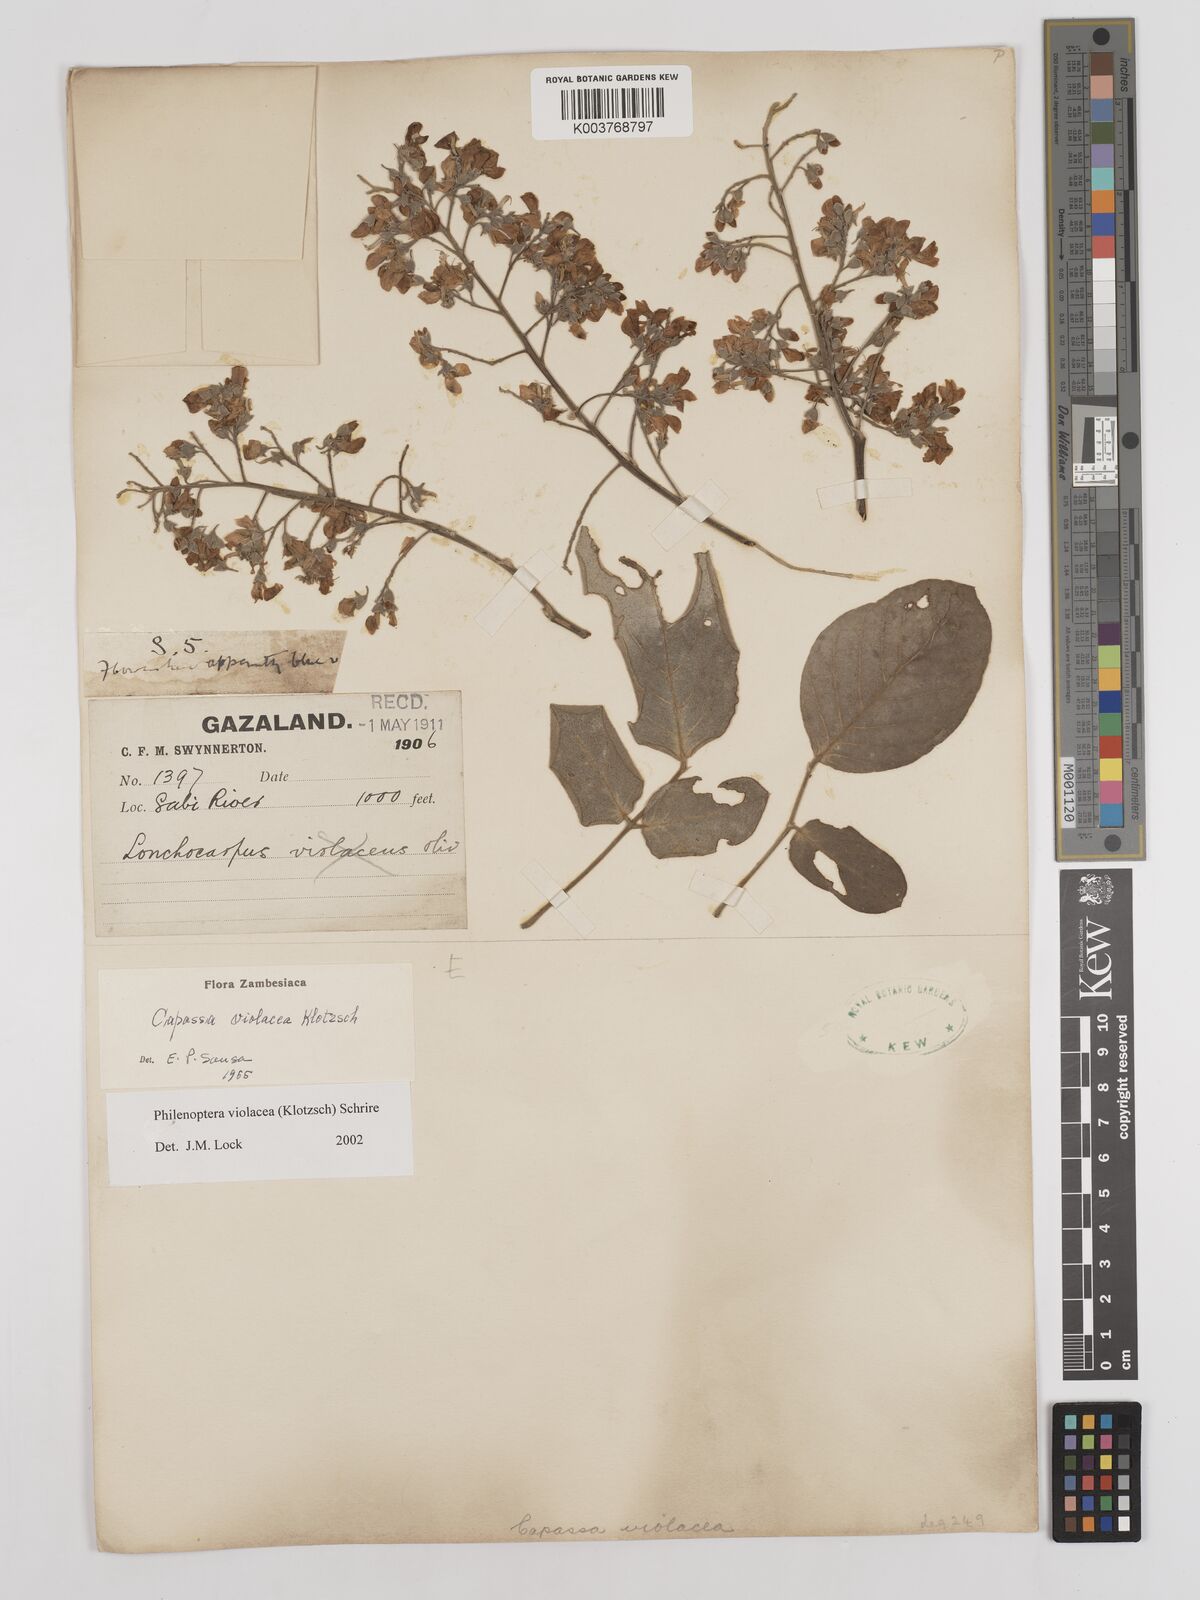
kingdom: Plantae
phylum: Tracheophyta
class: Magnoliopsida
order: Fabales
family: Fabaceae
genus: Philenoptera
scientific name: Philenoptera violacea
